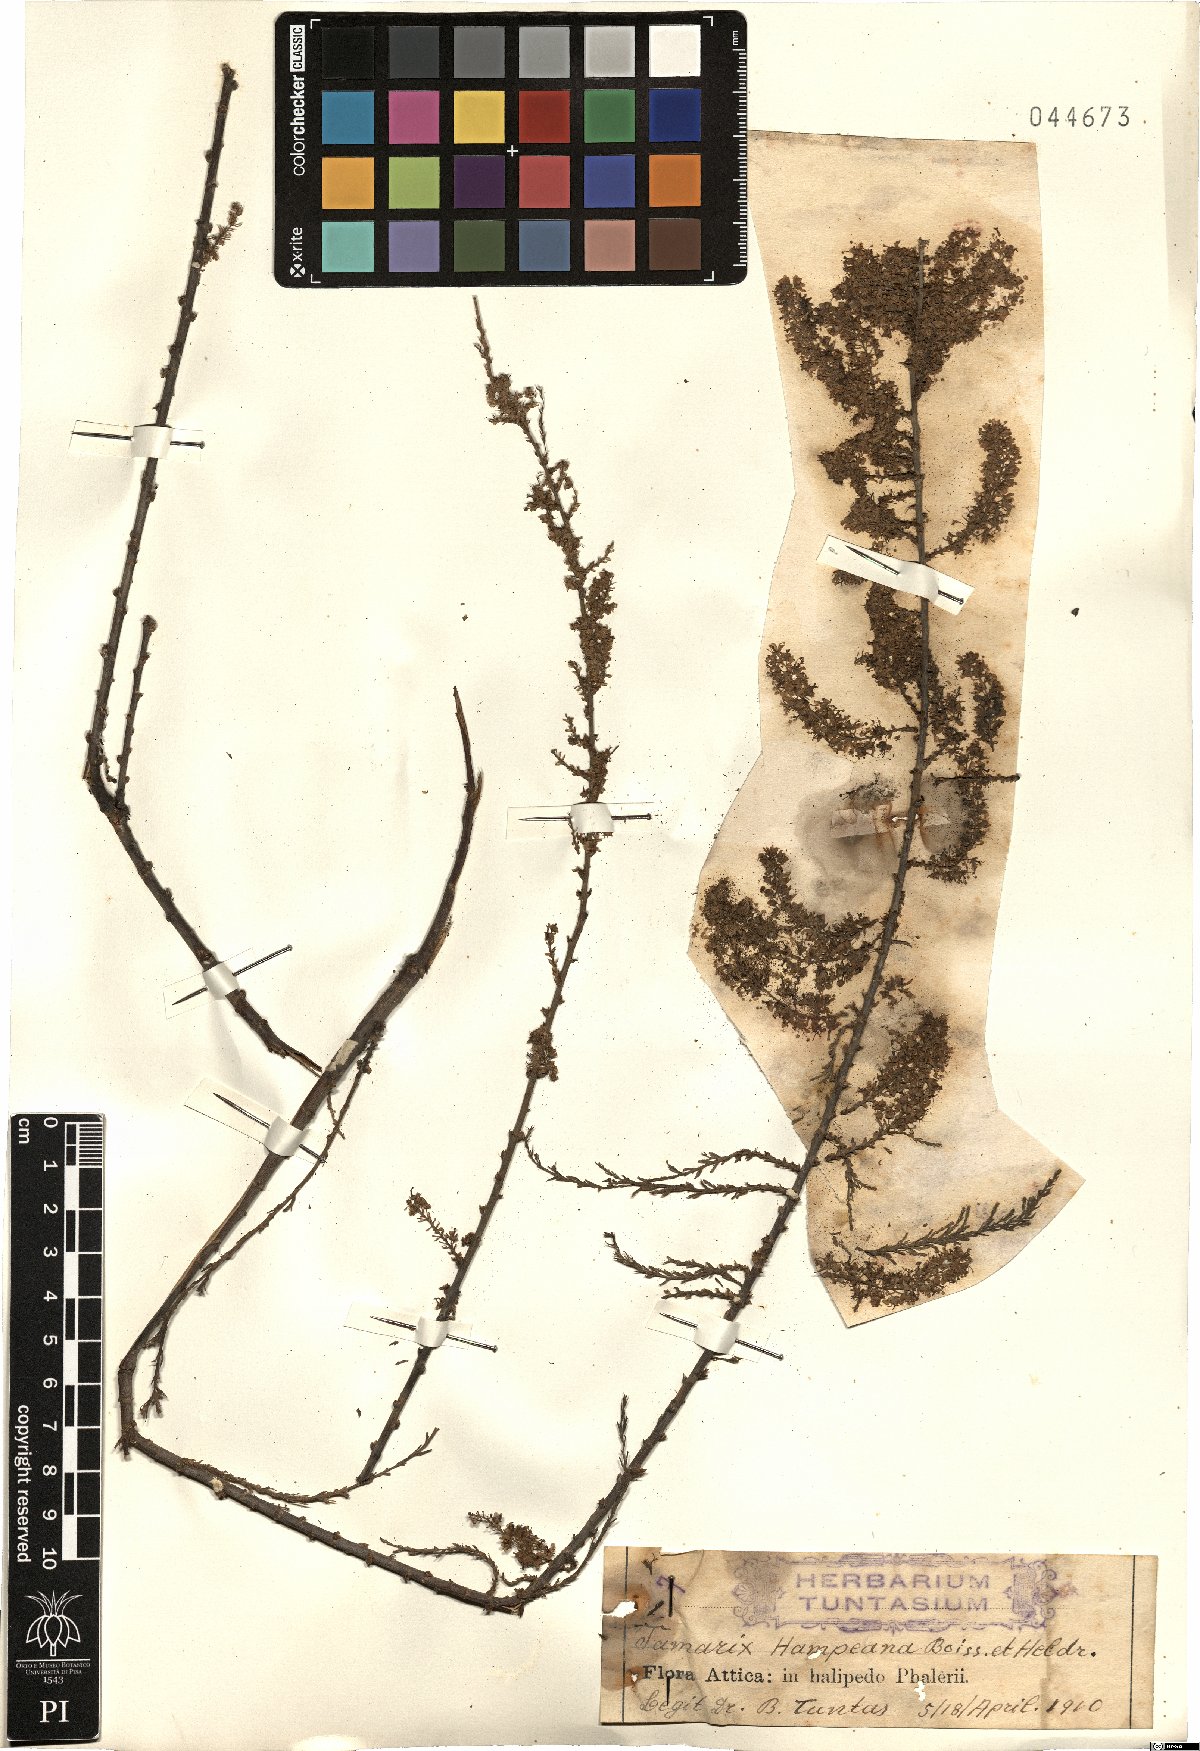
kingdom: Plantae
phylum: Tracheophyta
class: Magnoliopsida
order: Caryophyllales
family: Tamaricaceae
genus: Tamarix
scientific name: Tamarix hampeana
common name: Hampe’s tamarisk
